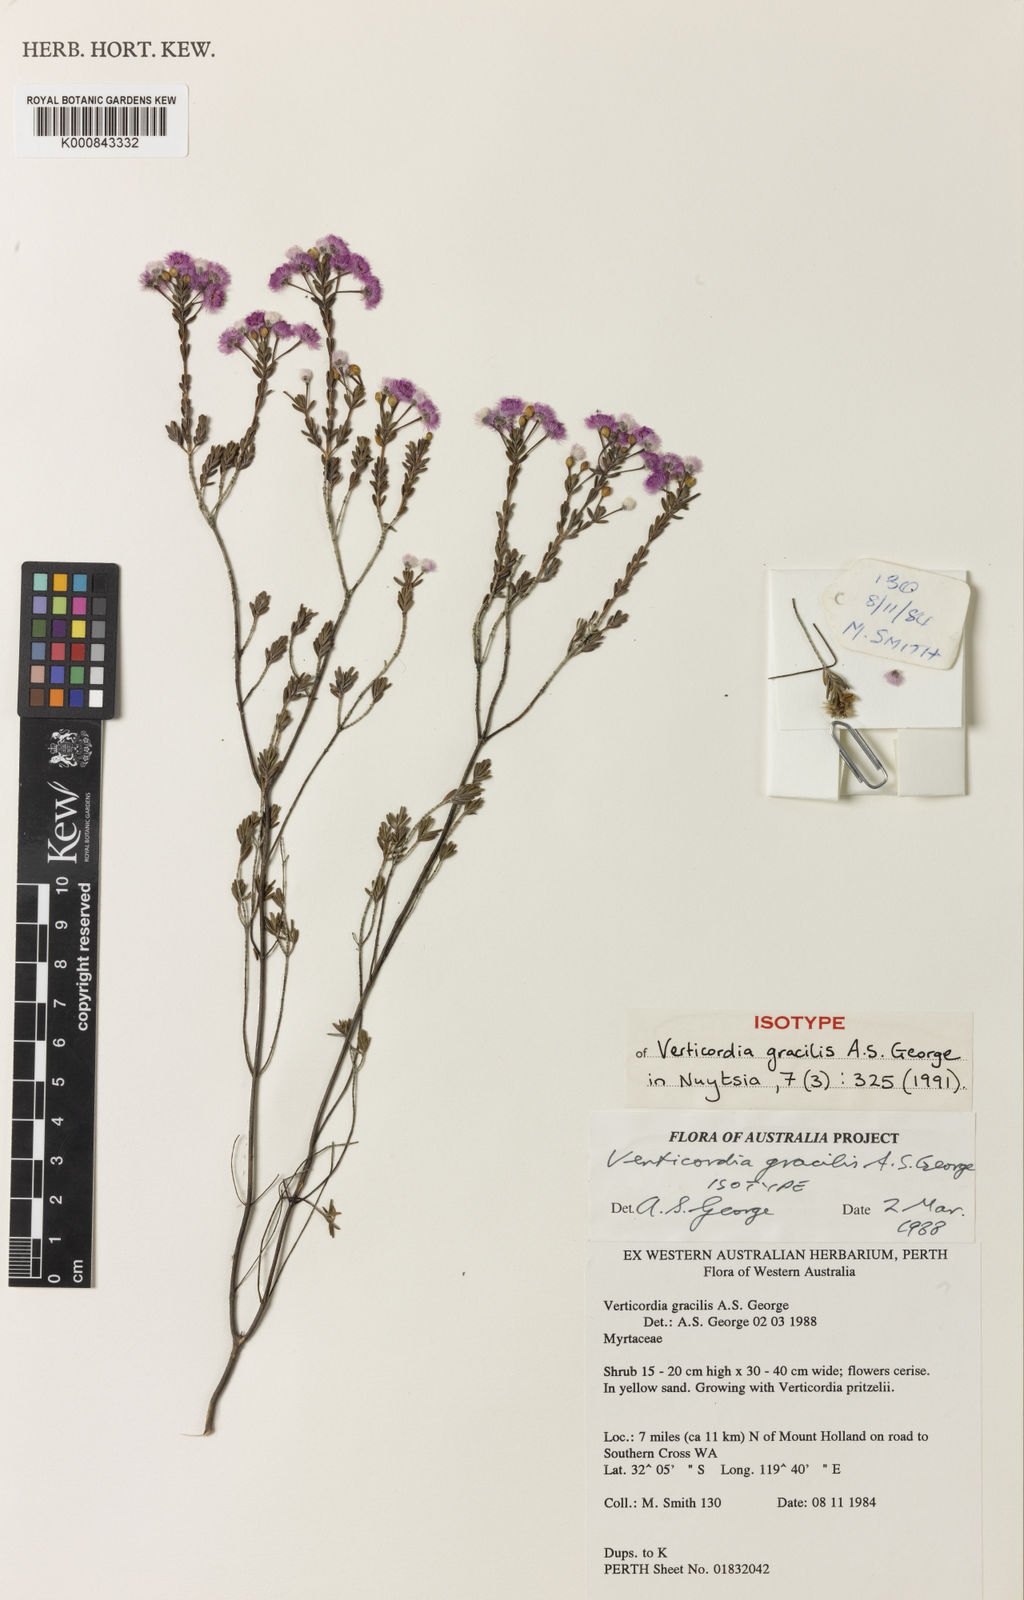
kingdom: Plantae
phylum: Tracheophyta
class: Magnoliopsida
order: Myrtales
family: Myrtaceae
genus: Verticordia
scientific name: Verticordia gracilis
